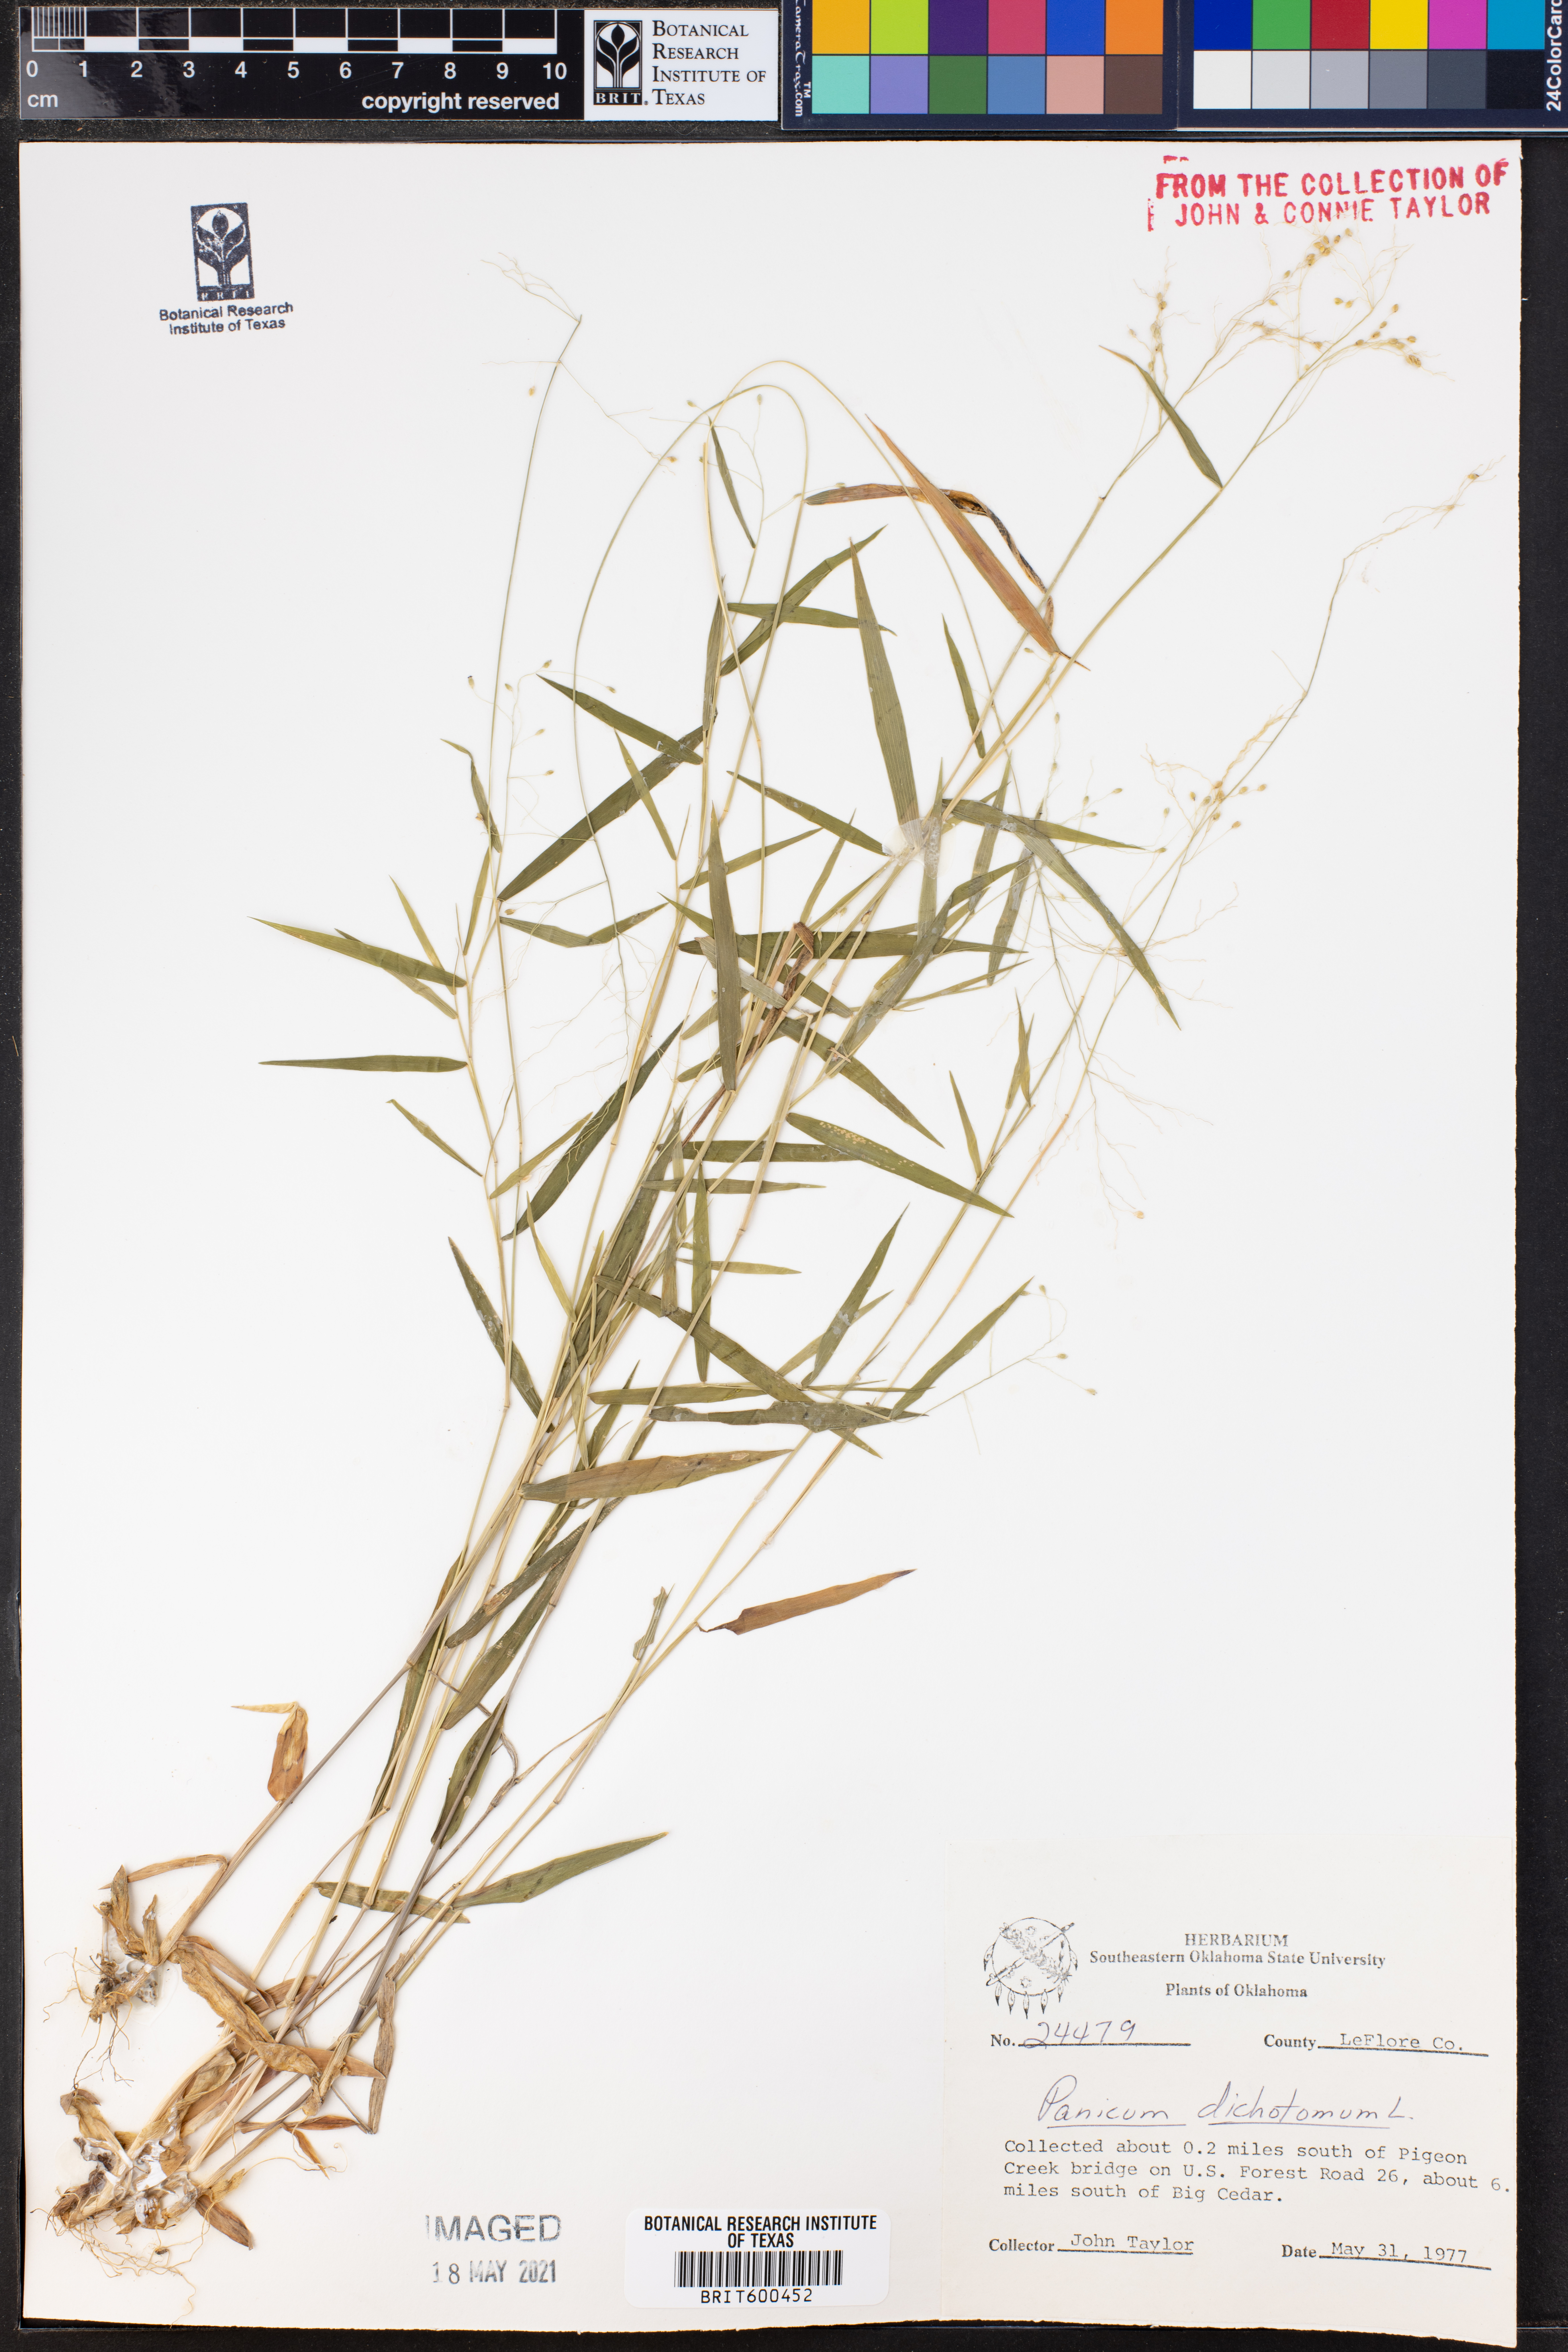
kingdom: Plantae
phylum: Tracheophyta
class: Liliopsida
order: Poales
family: Poaceae
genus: Dichanthelium
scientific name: Dichanthelium dichotomum
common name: Cypress panicgrass
